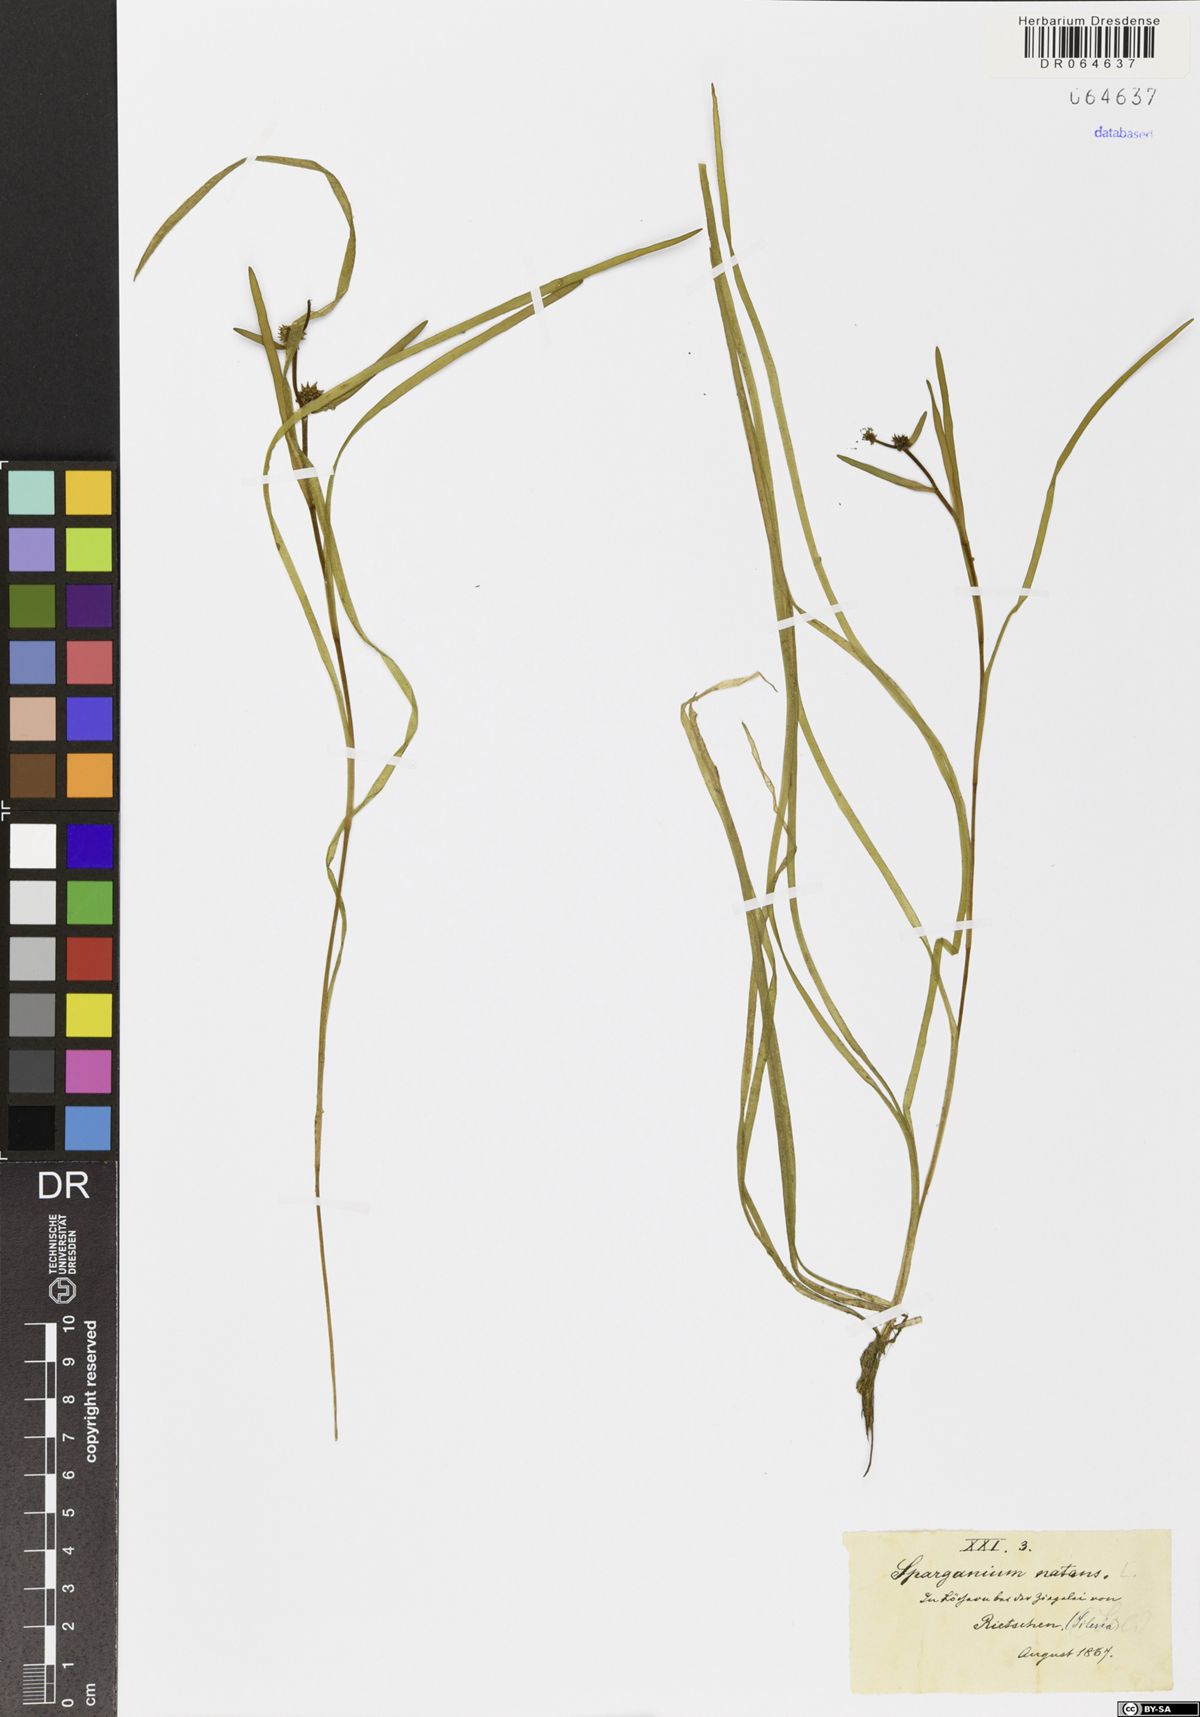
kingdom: Plantae
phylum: Tracheophyta
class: Liliopsida
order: Poales
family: Typhaceae
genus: Sparganium
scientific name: Sparganium natans
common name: Least bur-reed
